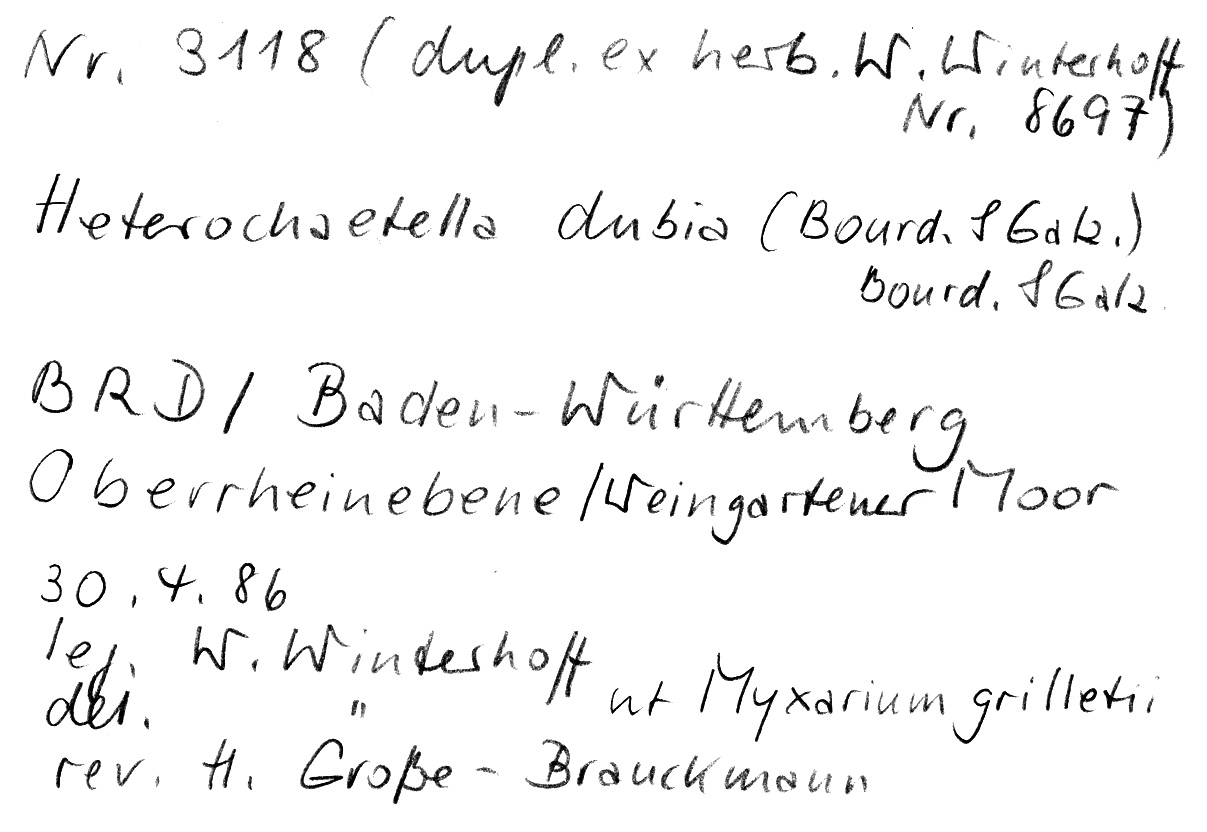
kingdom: Fungi
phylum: Basidiomycota
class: Agaricomycetes
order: Auriculariales
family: Hyaloriaceae
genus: Protomerulius
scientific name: Protomerulius dubius
